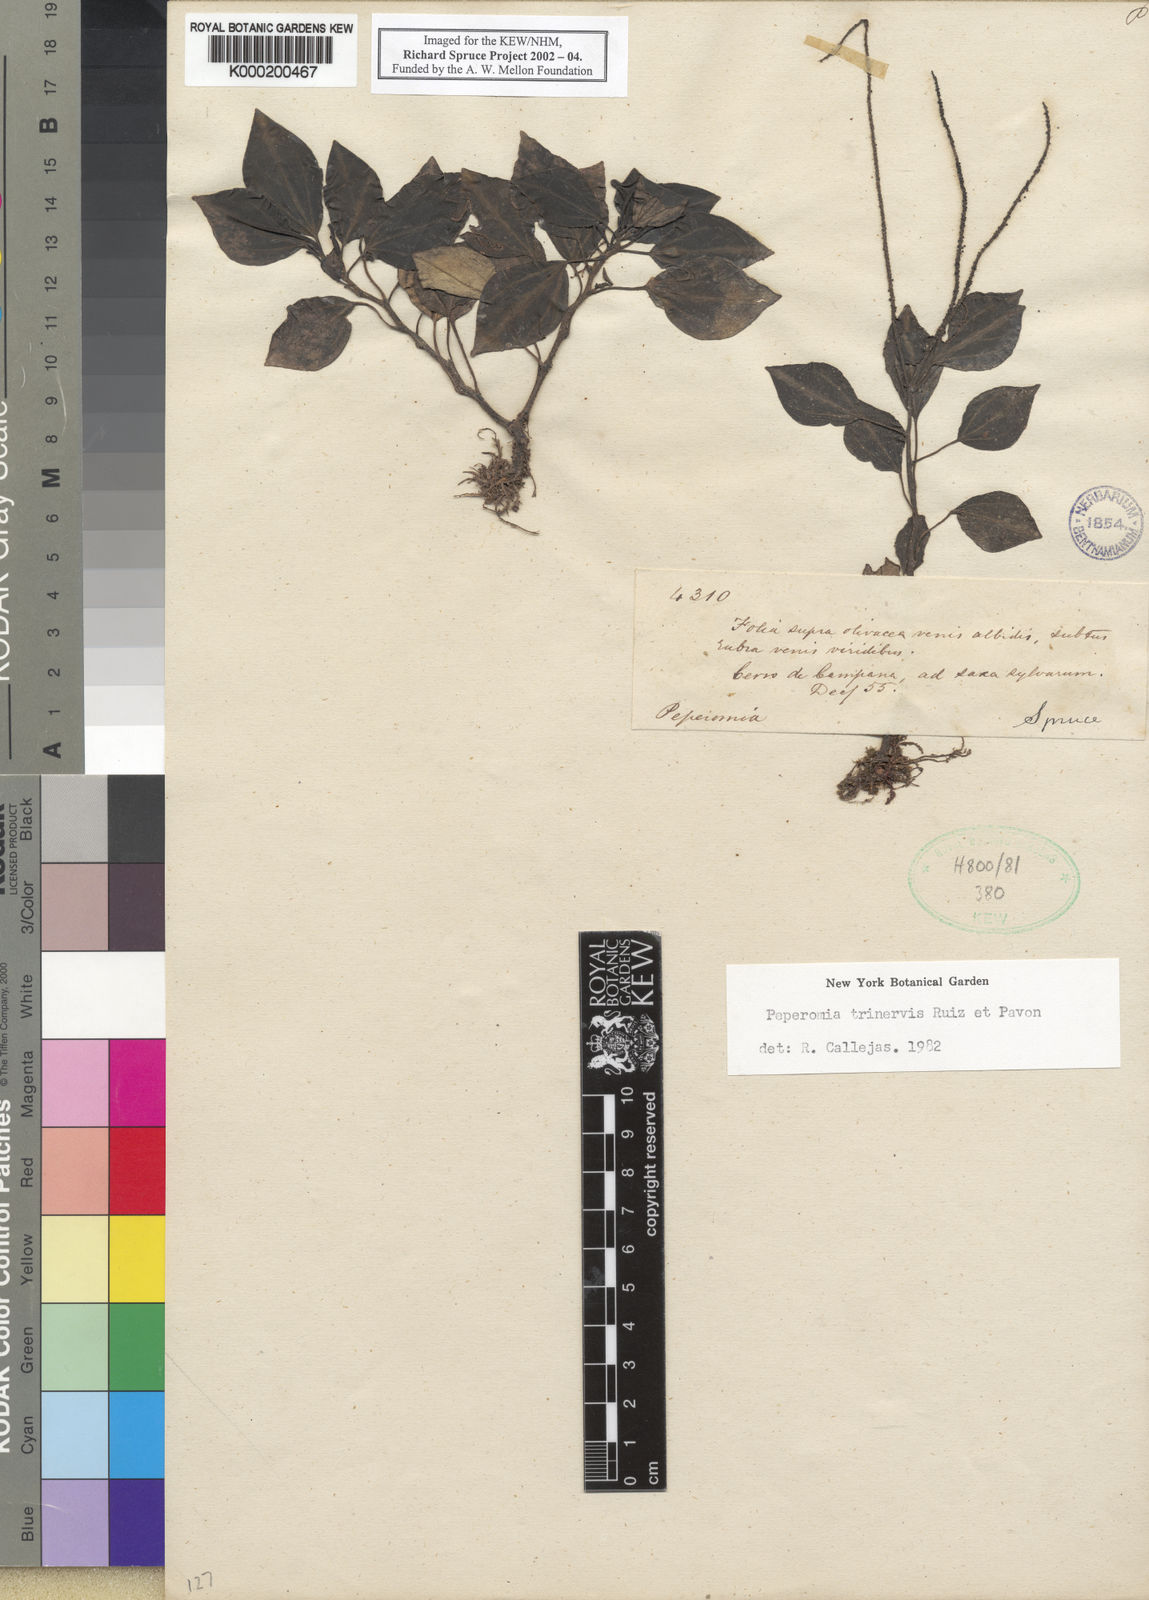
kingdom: Plantae
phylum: Tracheophyta
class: Magnoliopsida
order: Piperales
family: Piperaceae
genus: Peperomia
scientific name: Peperomia trinervis
